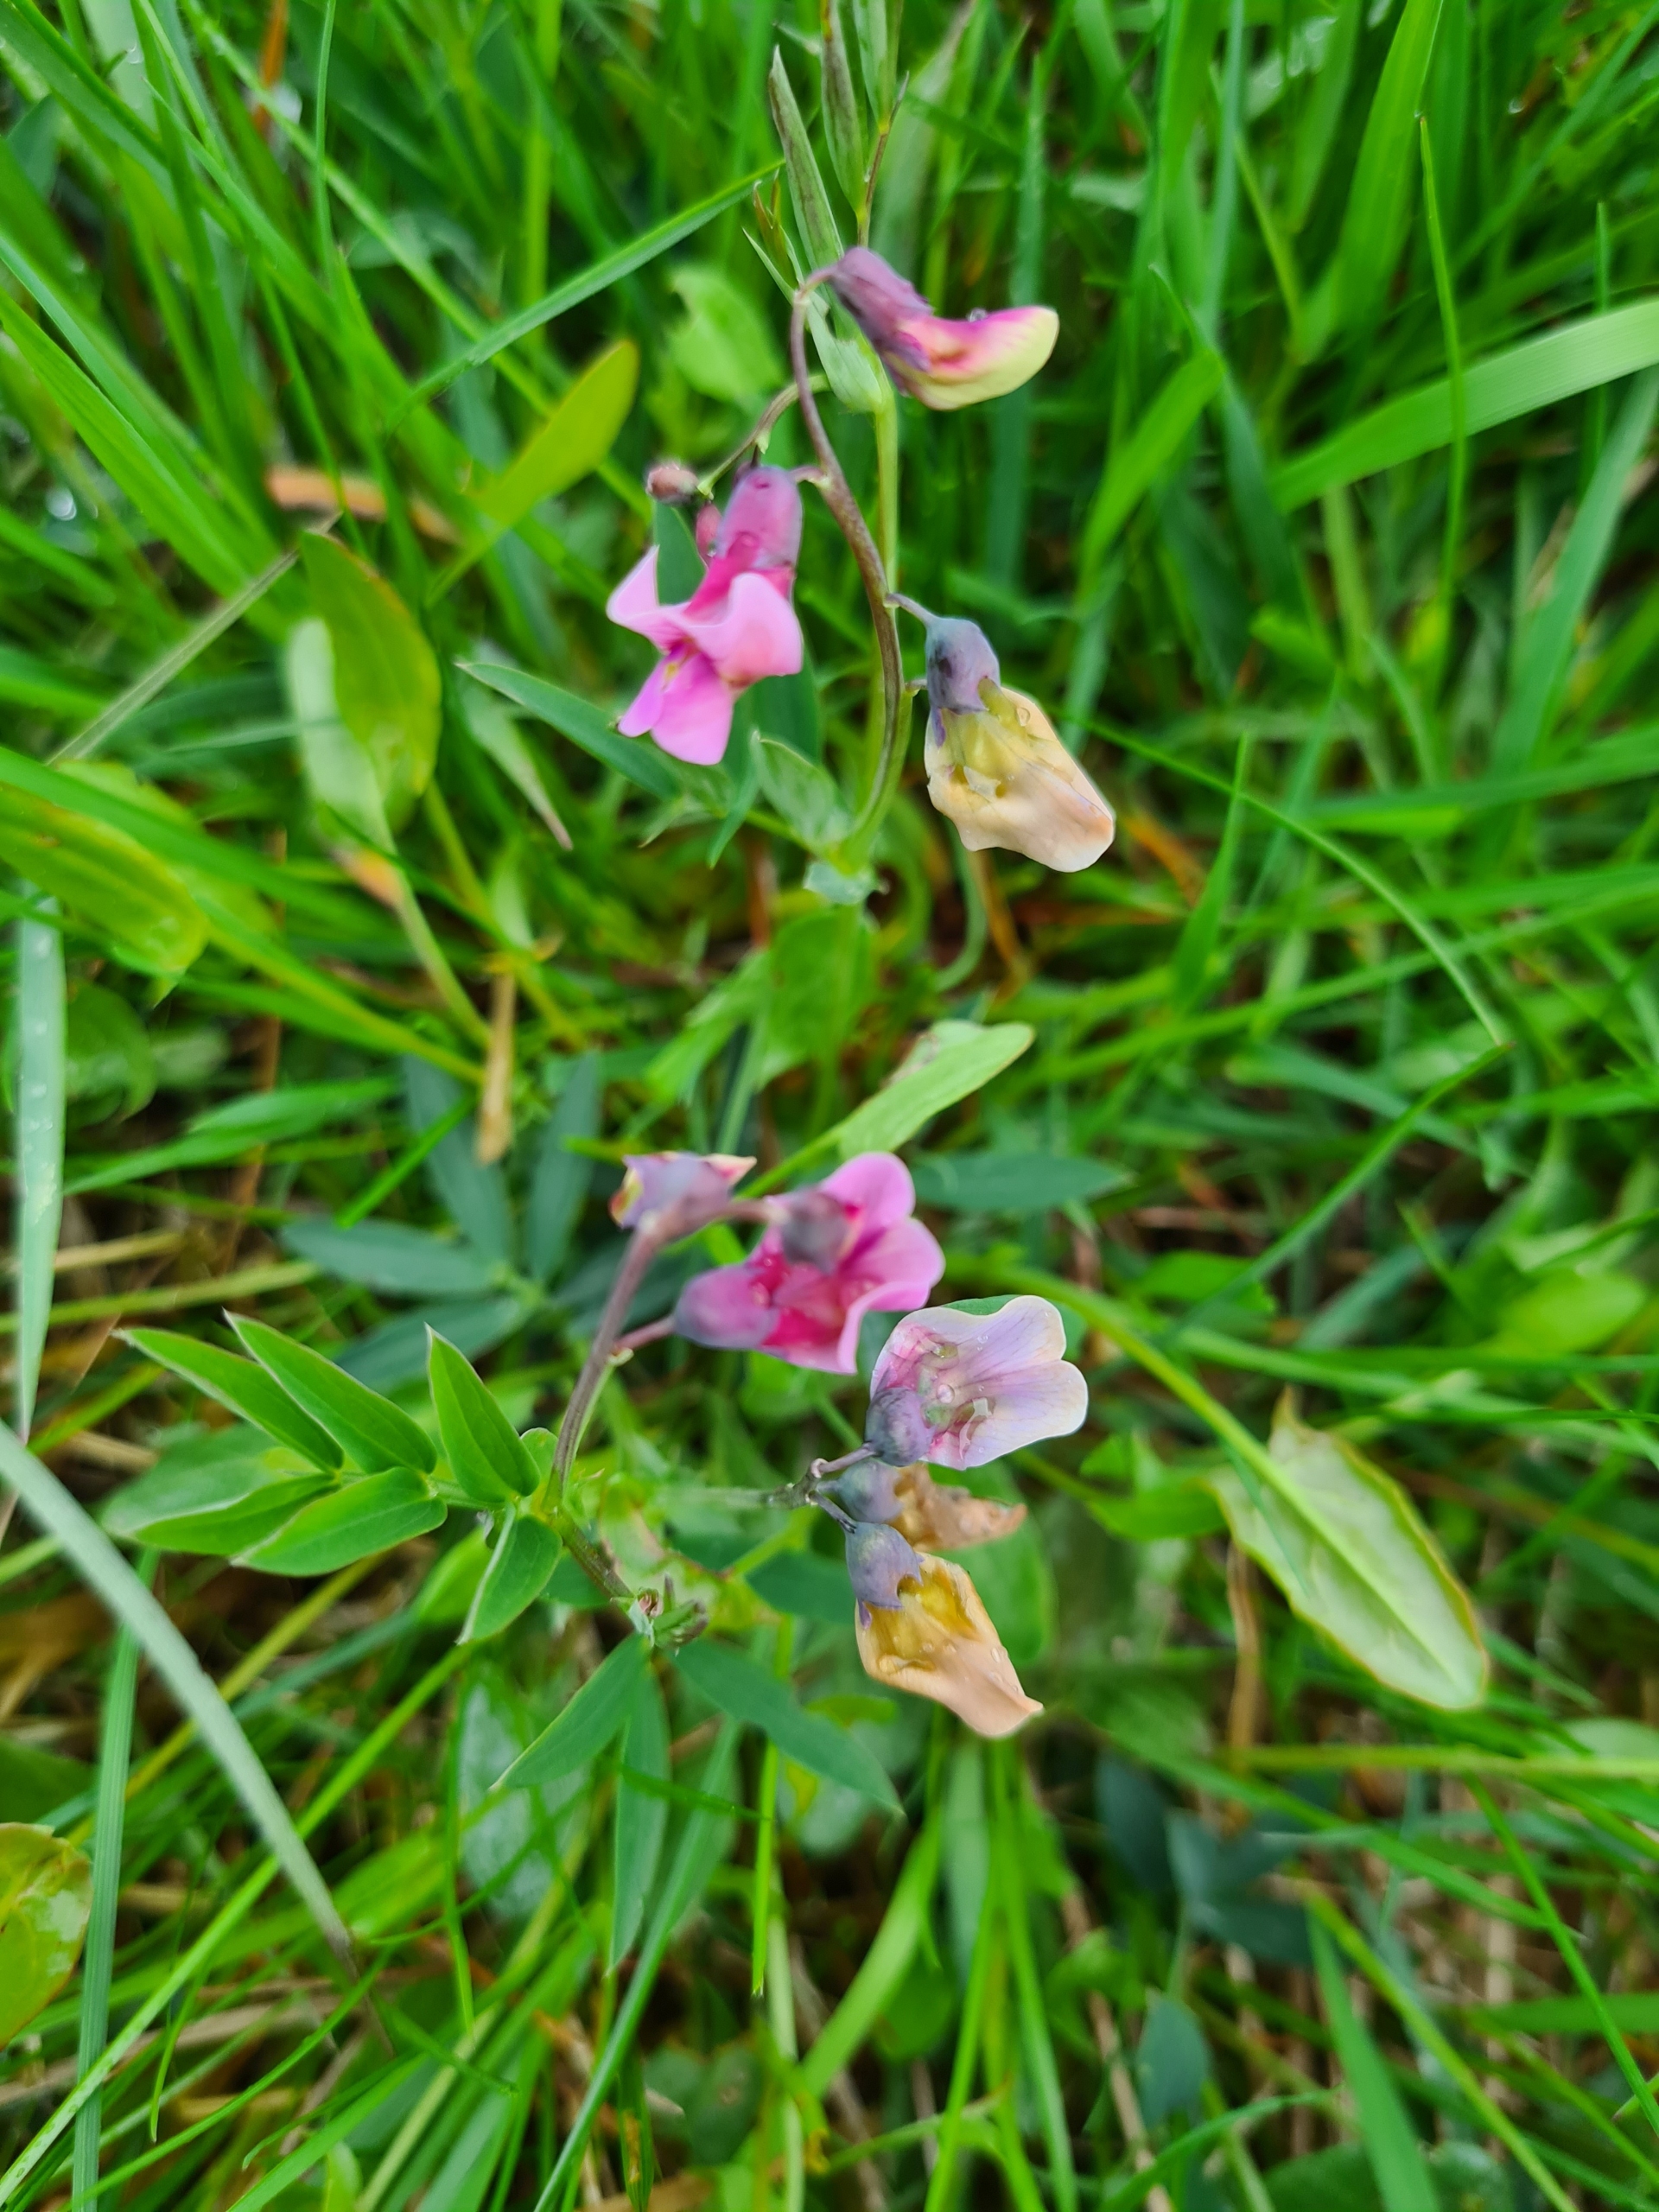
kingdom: Plantae
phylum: Tracheophyta
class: Magnoliopsida
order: Fabales
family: Fabaceae
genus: Lathyrus
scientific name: Lathyrus linifolius
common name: Krat-fladbælg
